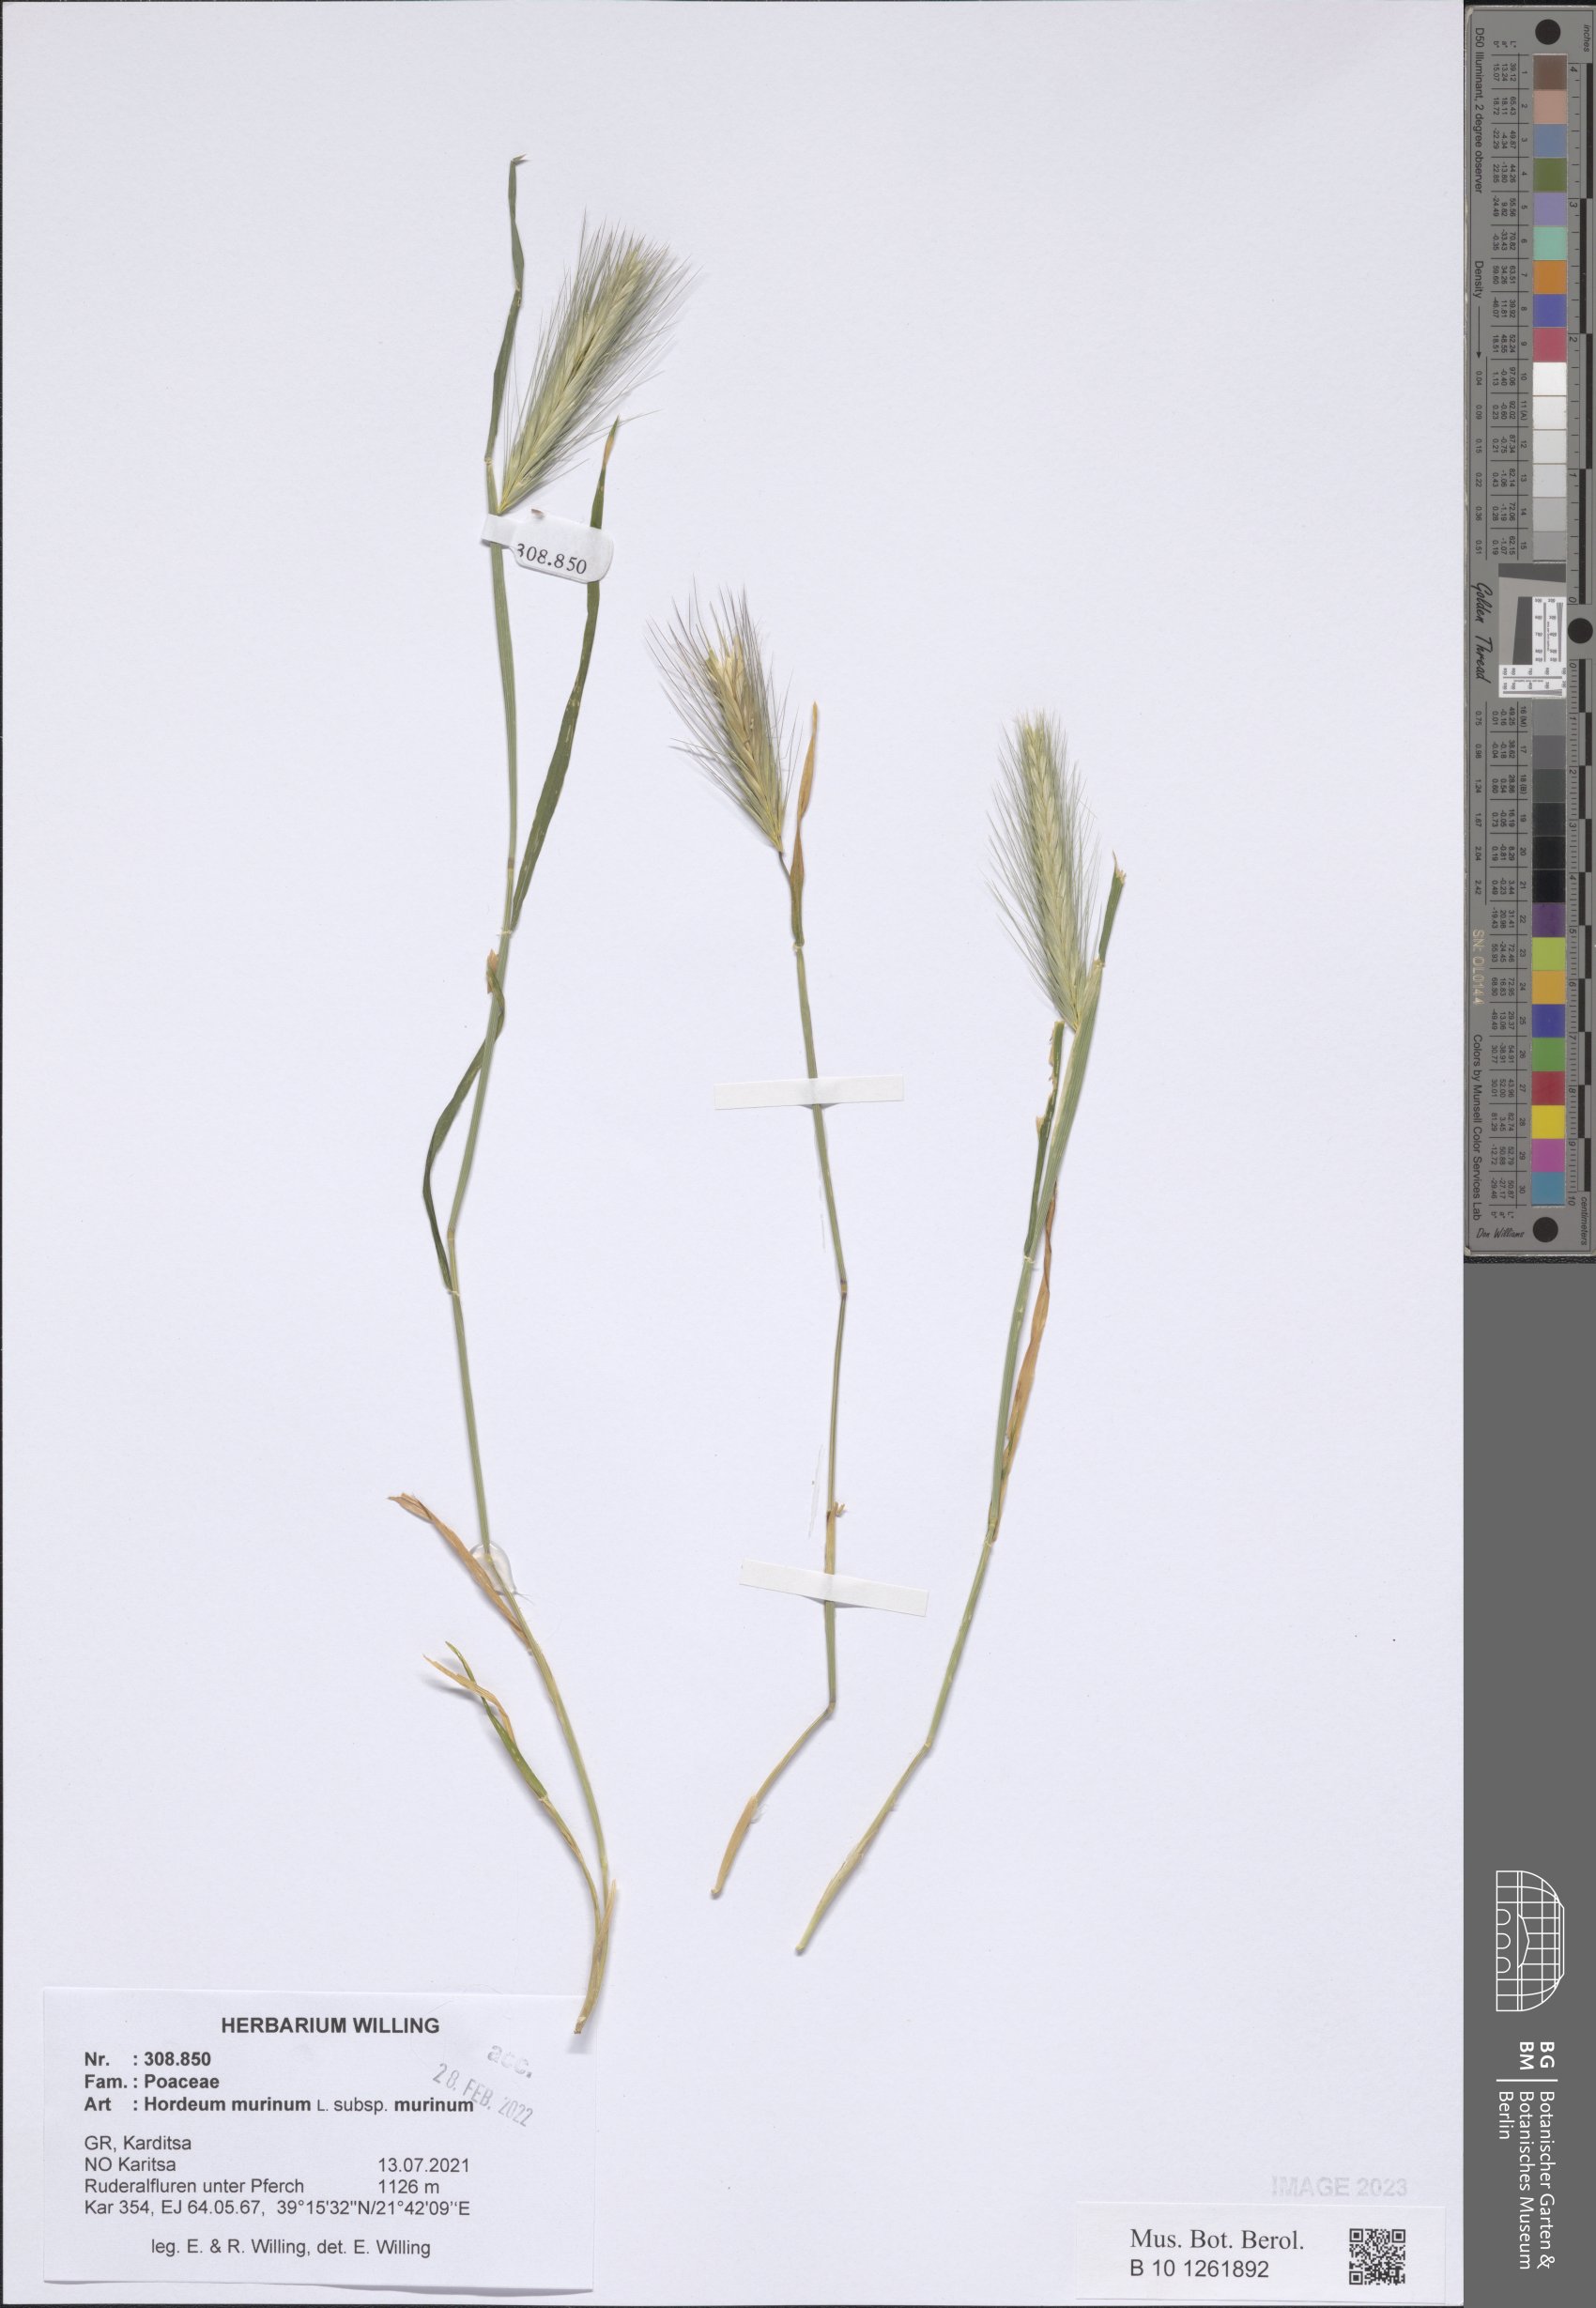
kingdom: Plantae
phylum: Tracheophyta
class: Liliopsida
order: Poales
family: Poaceae
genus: Hordeum
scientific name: Hordeum murinum
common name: Wall barley
